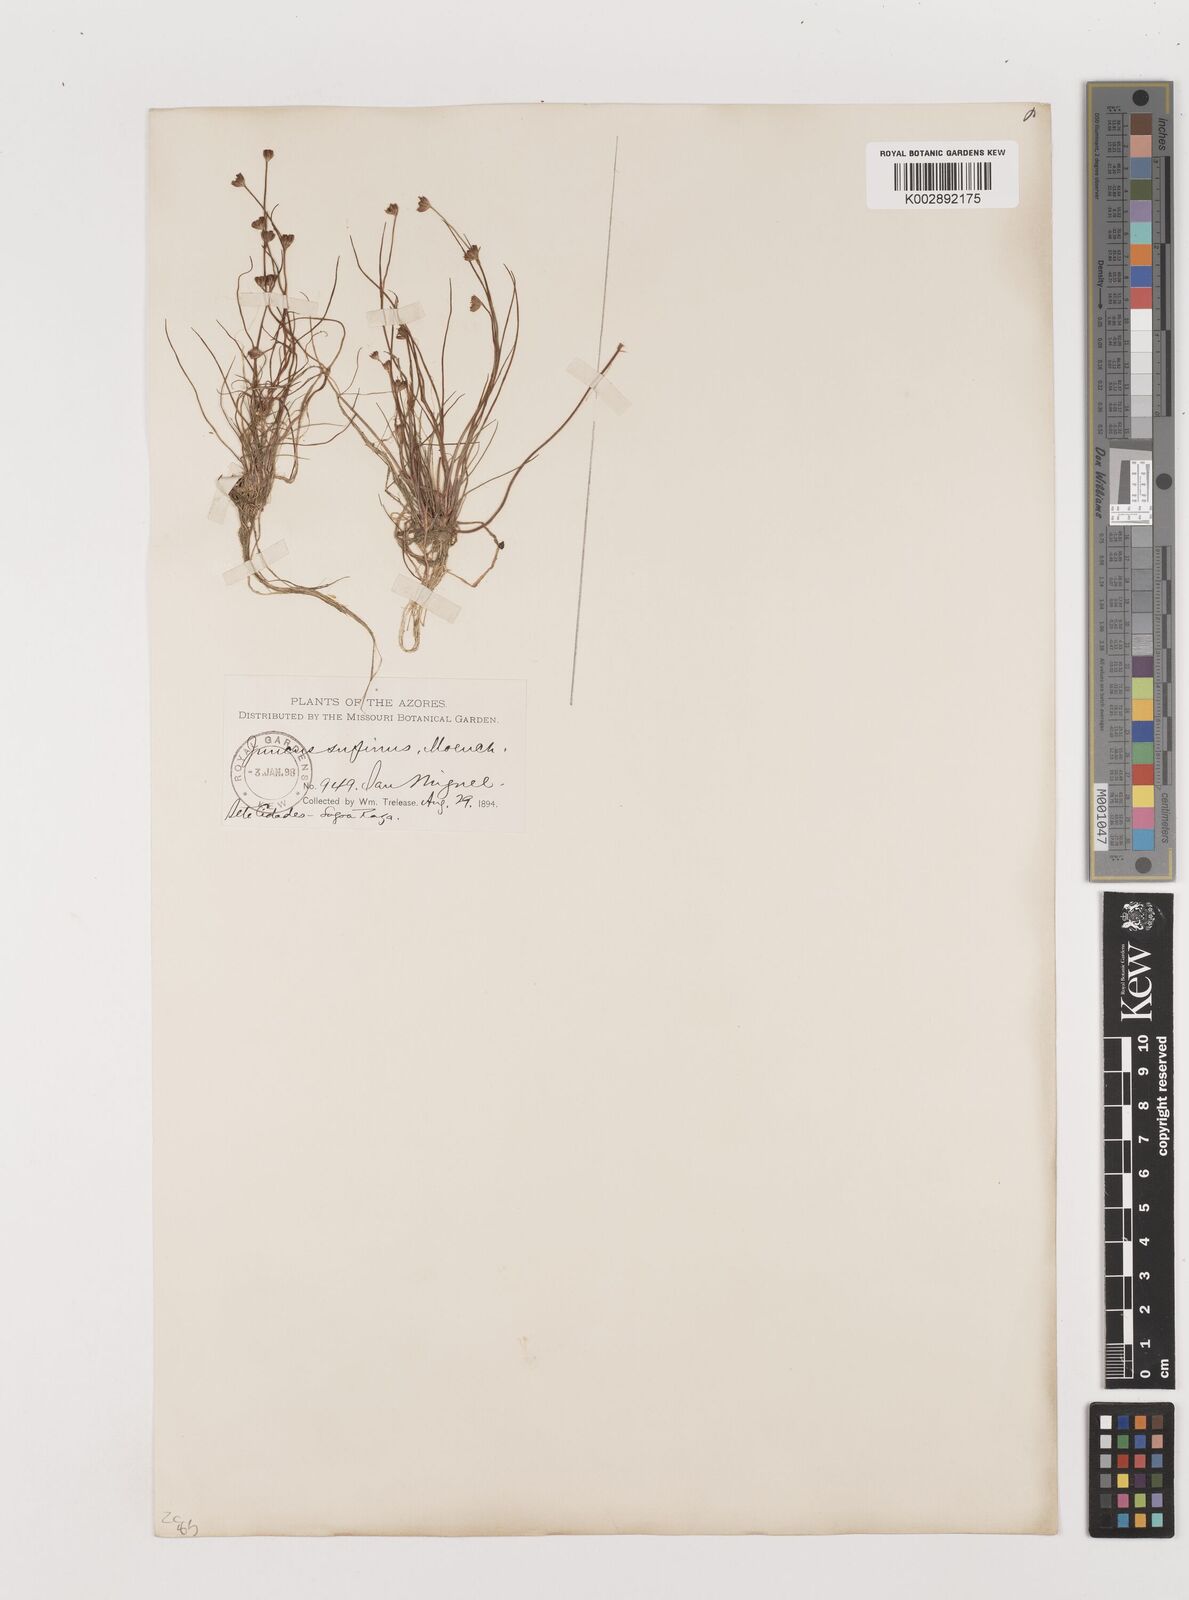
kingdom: Plantae
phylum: Tracheophyta
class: Liliopsida
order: Poales
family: Juncaceae
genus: Juncus
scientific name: Juncus bulbosus
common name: Bulbous rush
